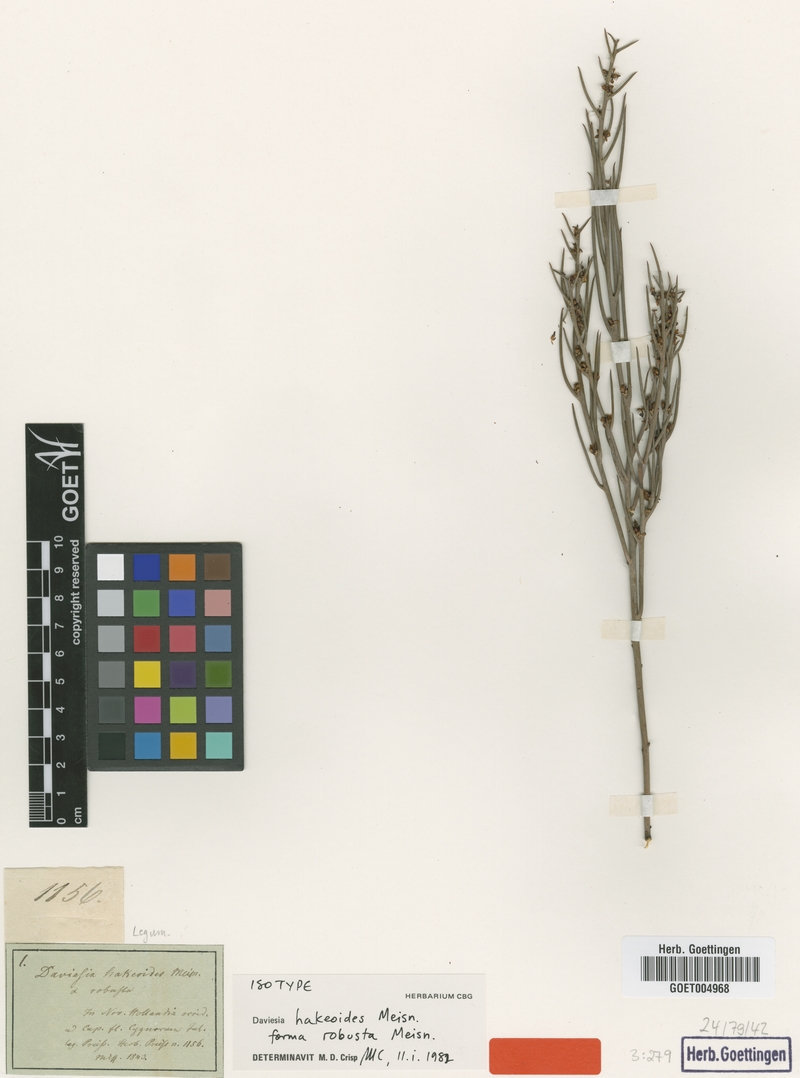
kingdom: Plantae
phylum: Tracheophyta
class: Magnoliopsida
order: Fabales
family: Fabaceae
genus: Daviesia
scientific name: Daviesia hakeoides
